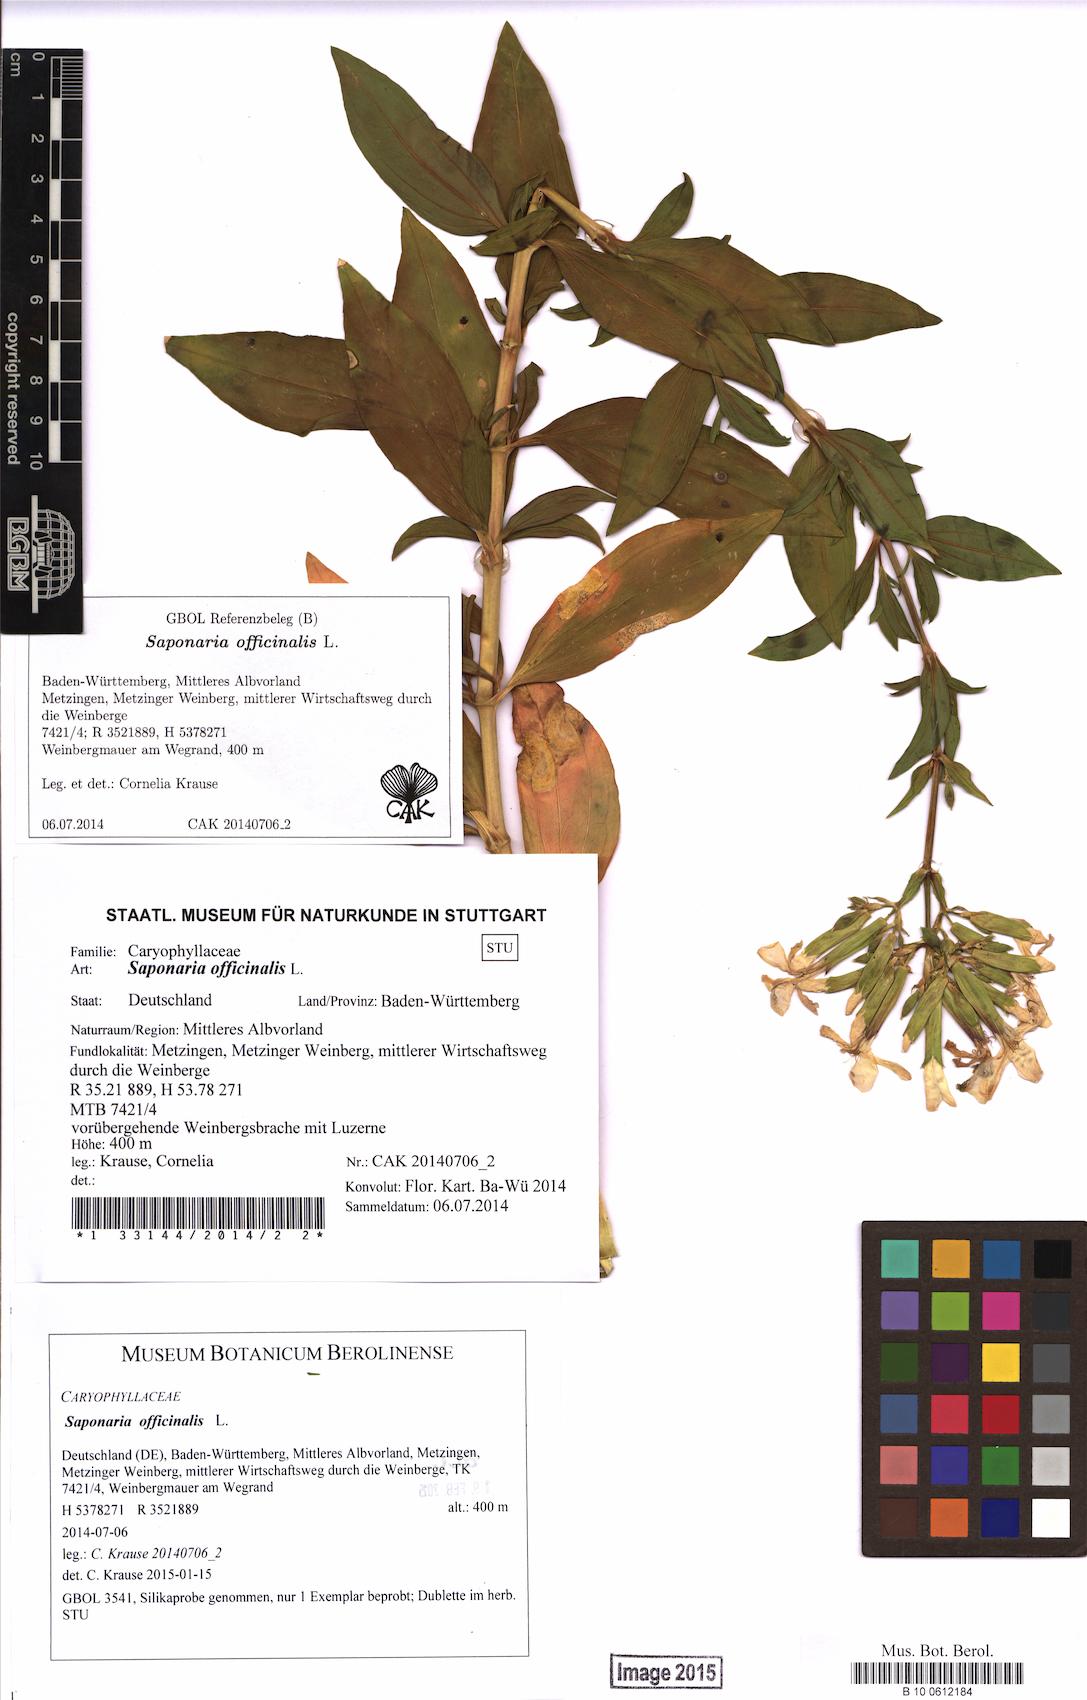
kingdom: Plantae
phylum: Tracheophyta
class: Magnoliopsida
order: Caryophyllales
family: Caryophyllaceae
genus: Saponaria
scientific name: Saponaria officinalis
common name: Soapwort
